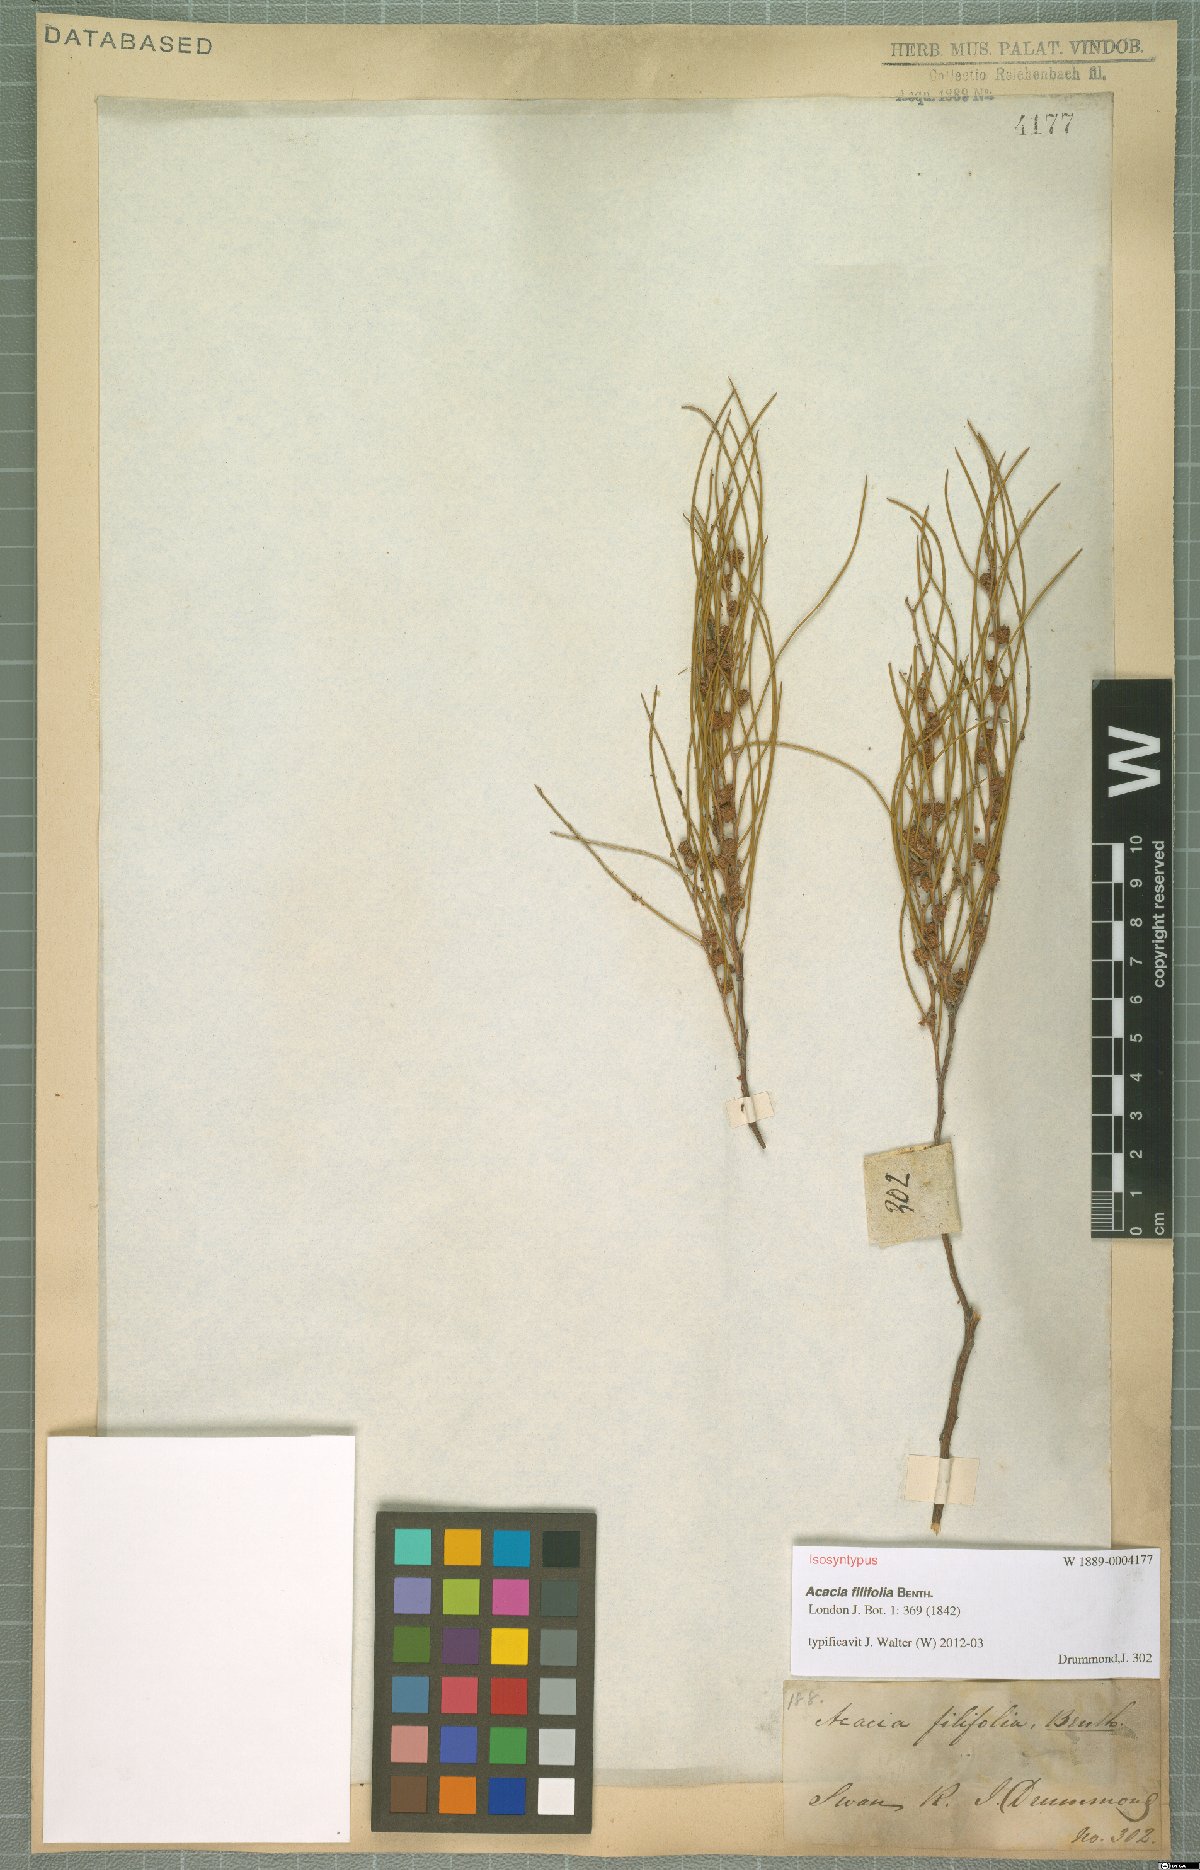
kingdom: Plantae
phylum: Tracheophyta
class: Magnoliopsida
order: Fabales
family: Fabaceae
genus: Acacia
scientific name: Acacia filifolia
